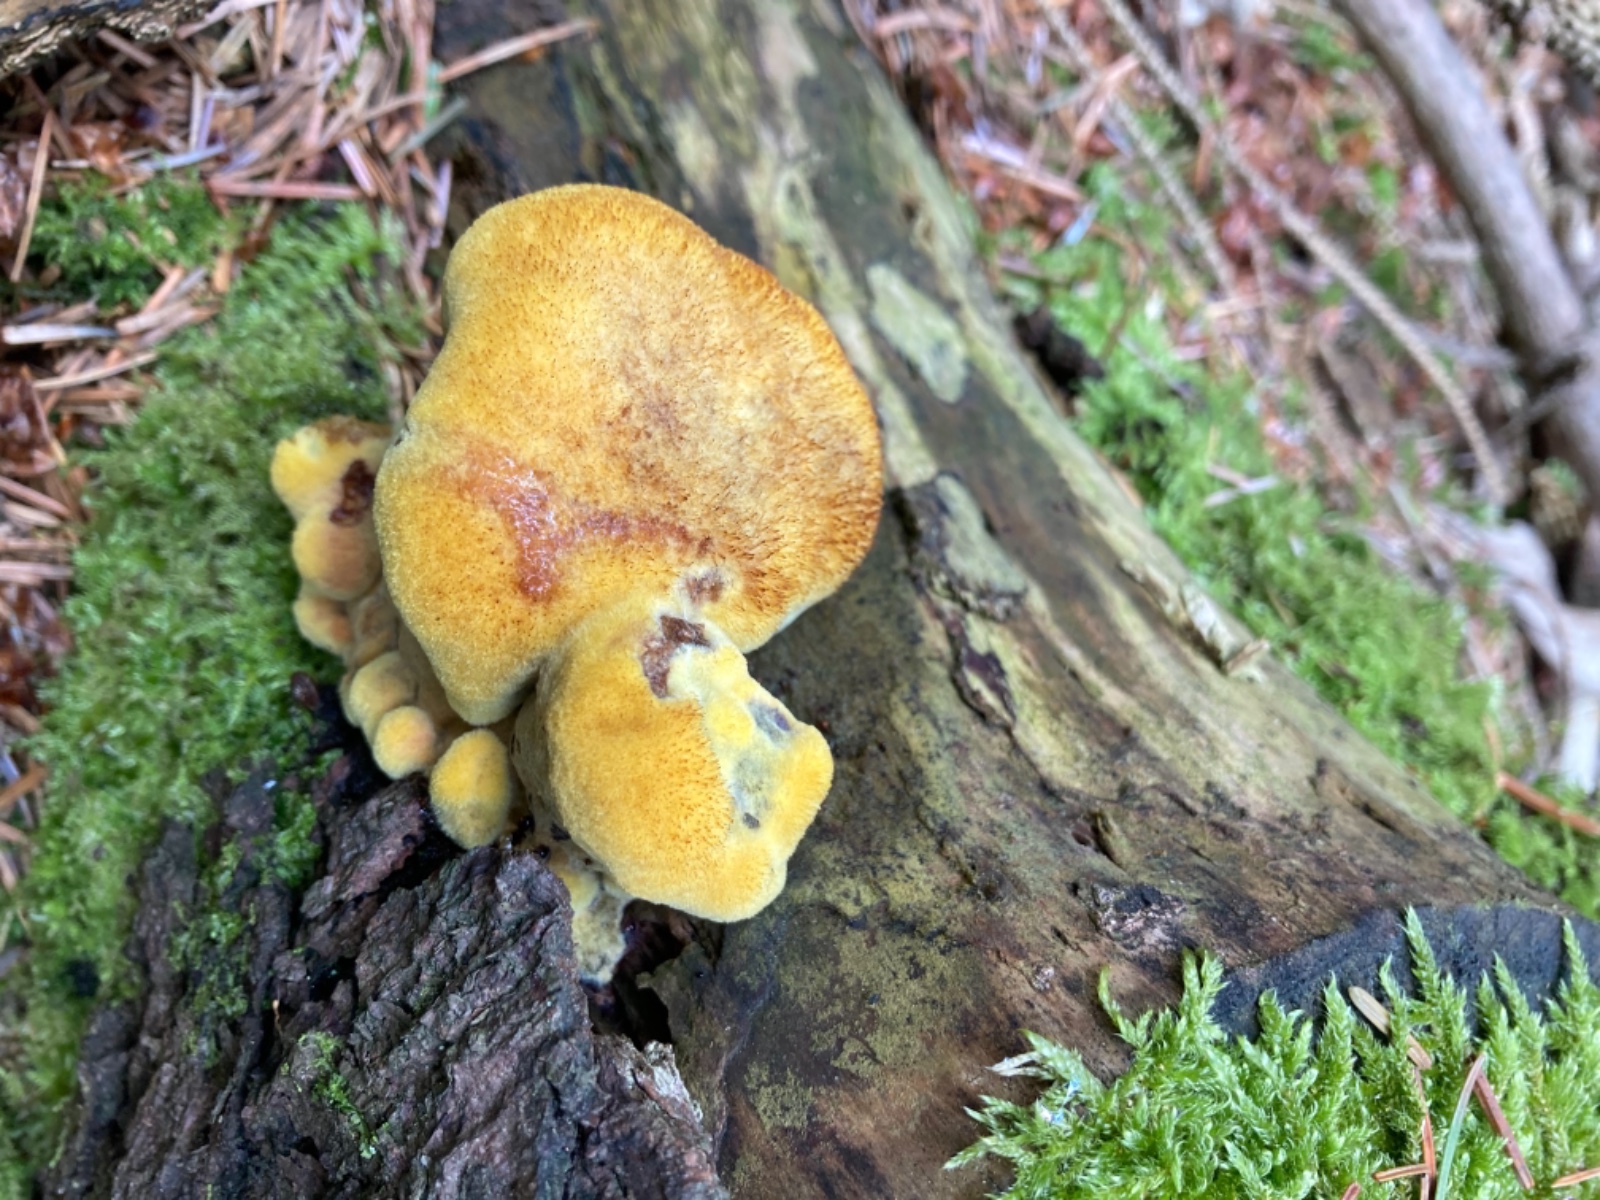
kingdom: Fungi
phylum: Basidiomycota
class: Agaricomycetes
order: Polyporales
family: Laetiporaceae
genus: Phaeolus
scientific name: Phaeolus schweinitzii
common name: brunporesvamp
